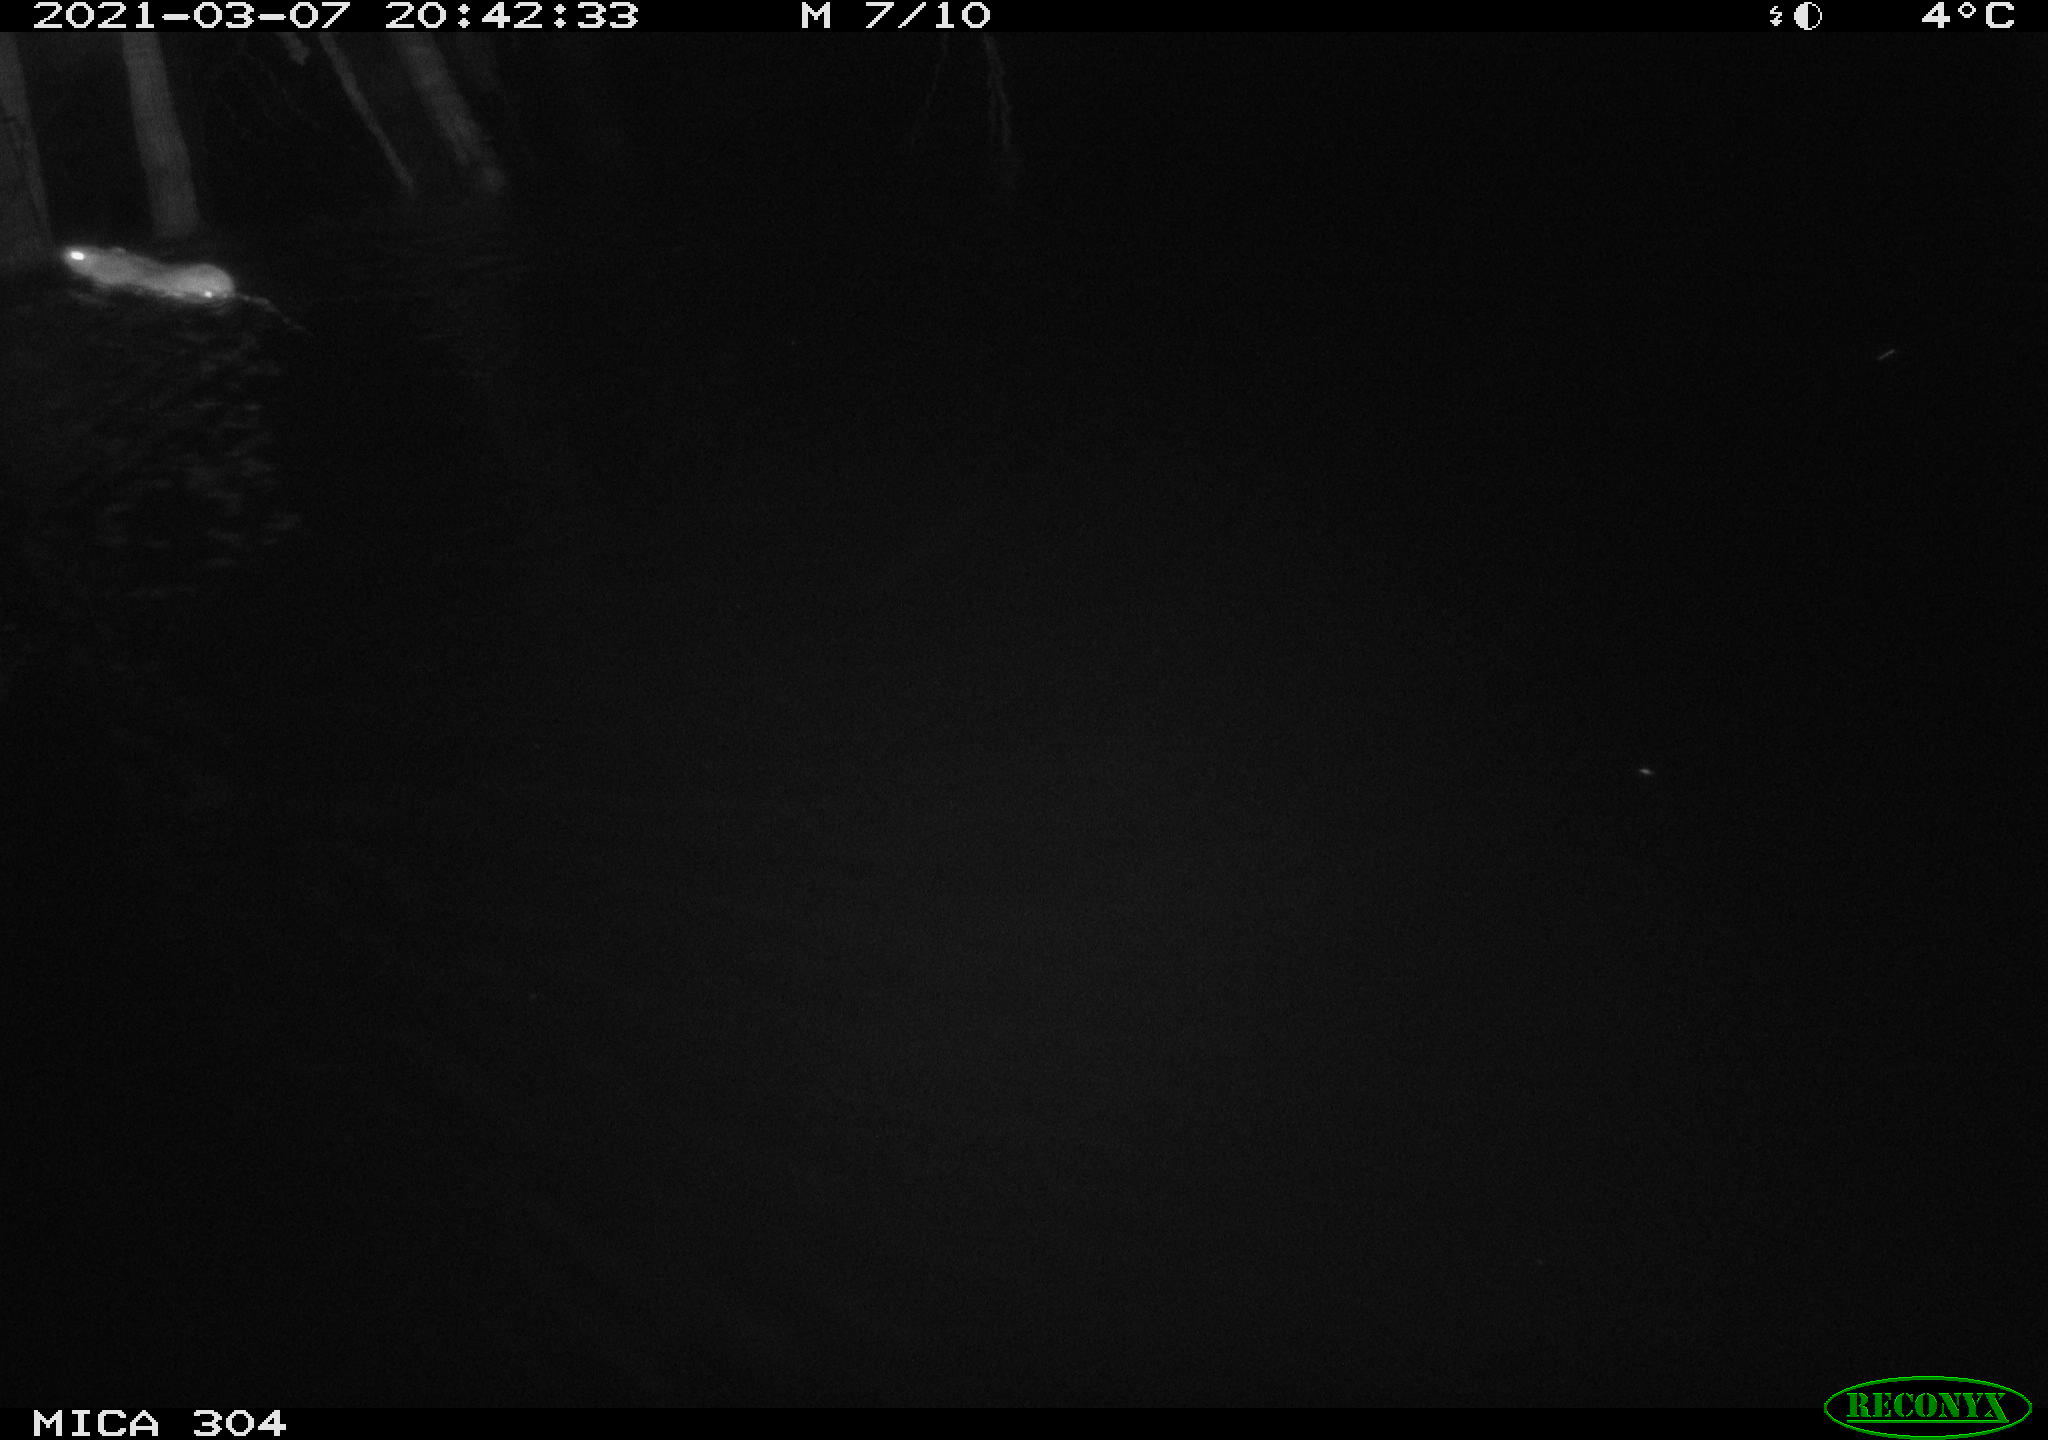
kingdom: Animalia
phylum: Chordata
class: Mammalia
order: Rodentia
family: Muridae
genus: Rattus
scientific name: Rattus norvegicus
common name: Brown rat
